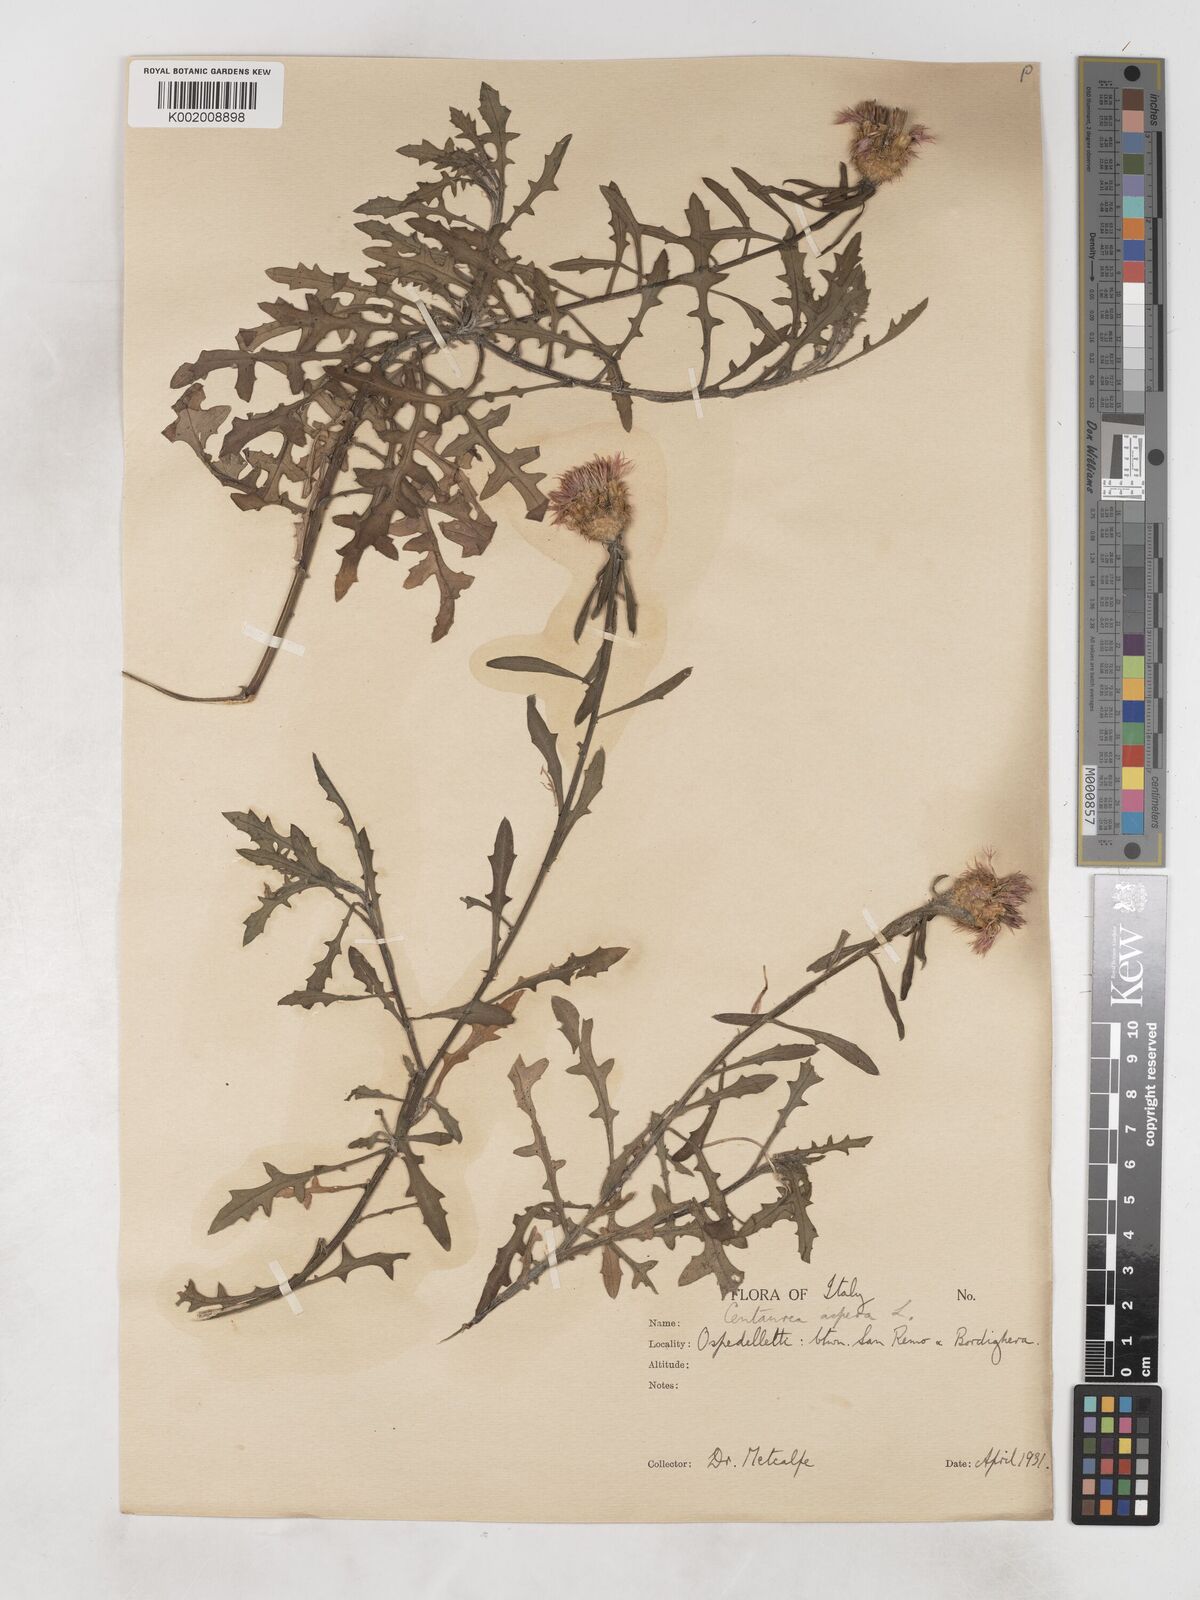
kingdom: Plantae
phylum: Tracheophyta
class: Magnoliopsida
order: Asterales
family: Asteraceae
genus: Centaurea
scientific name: Centaurea aspera
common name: Rough star-thistle
